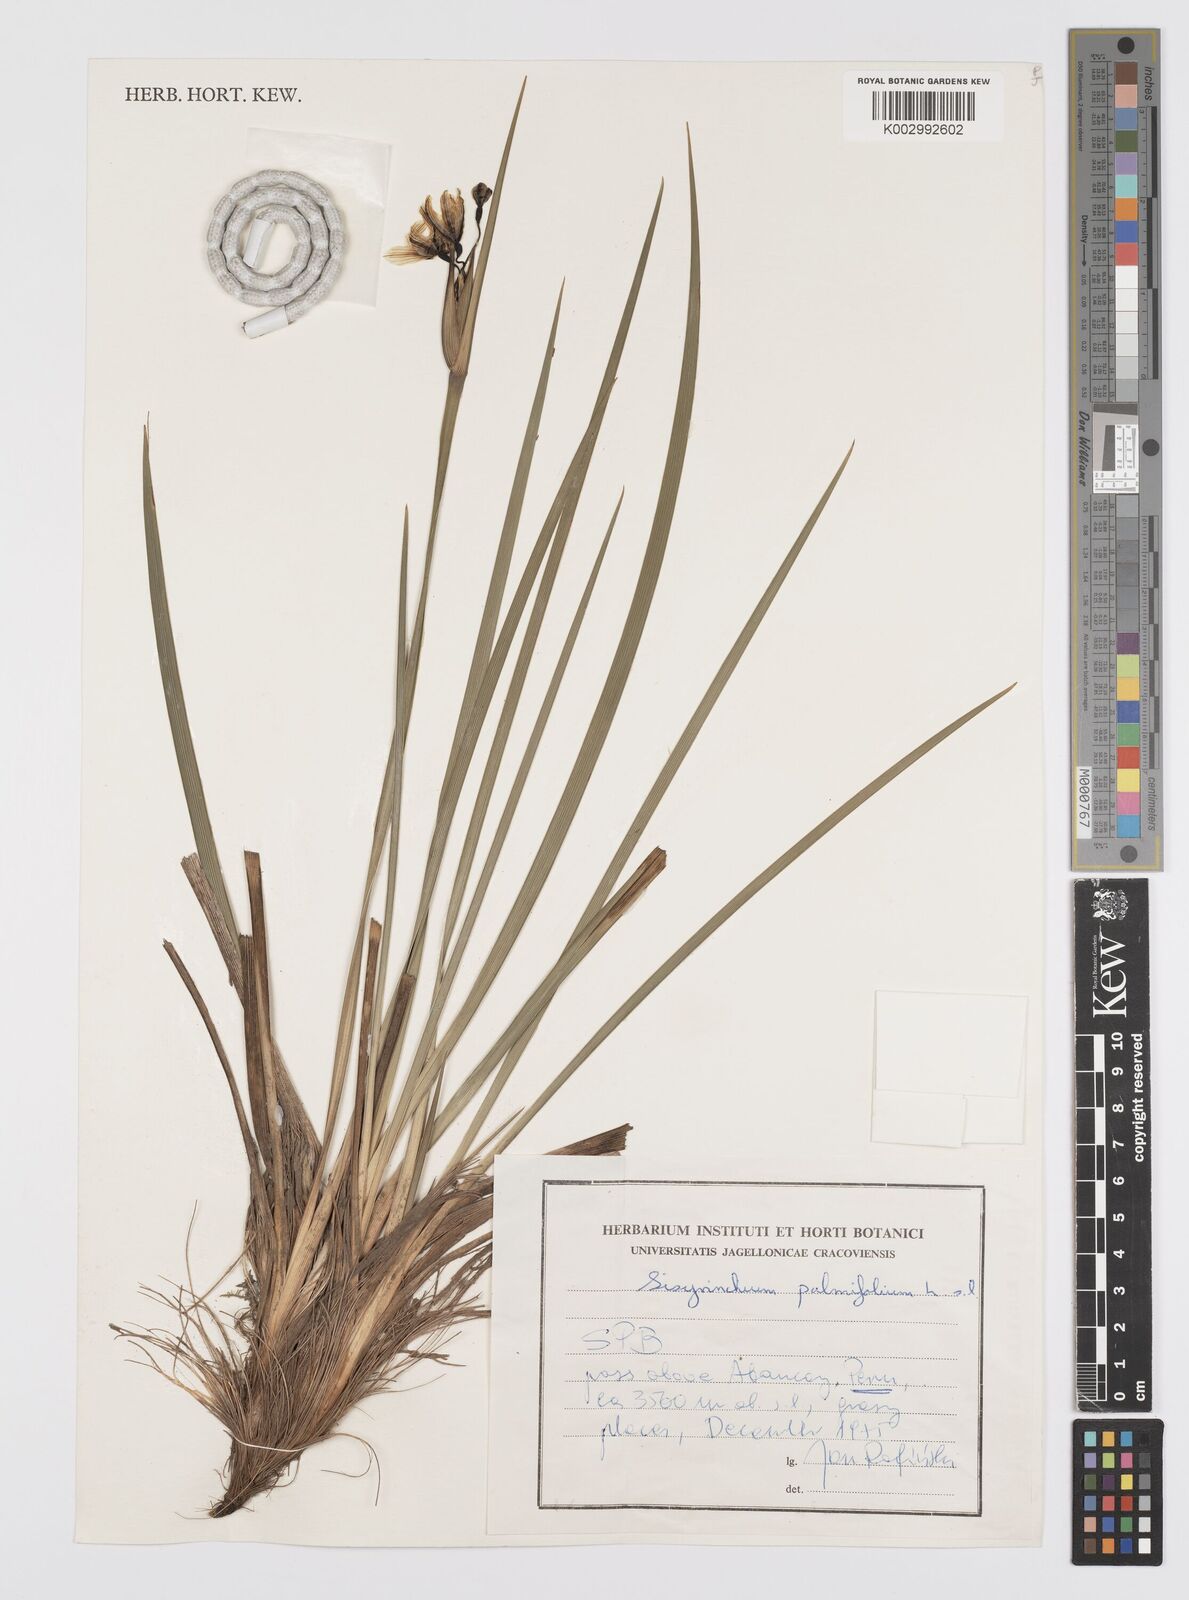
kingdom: Plantae
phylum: Tracheophyta
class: Liliopsida
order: Asparagales
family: Iridaceae
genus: Sisyrinchium
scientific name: Sisyrinchium palmifolium
